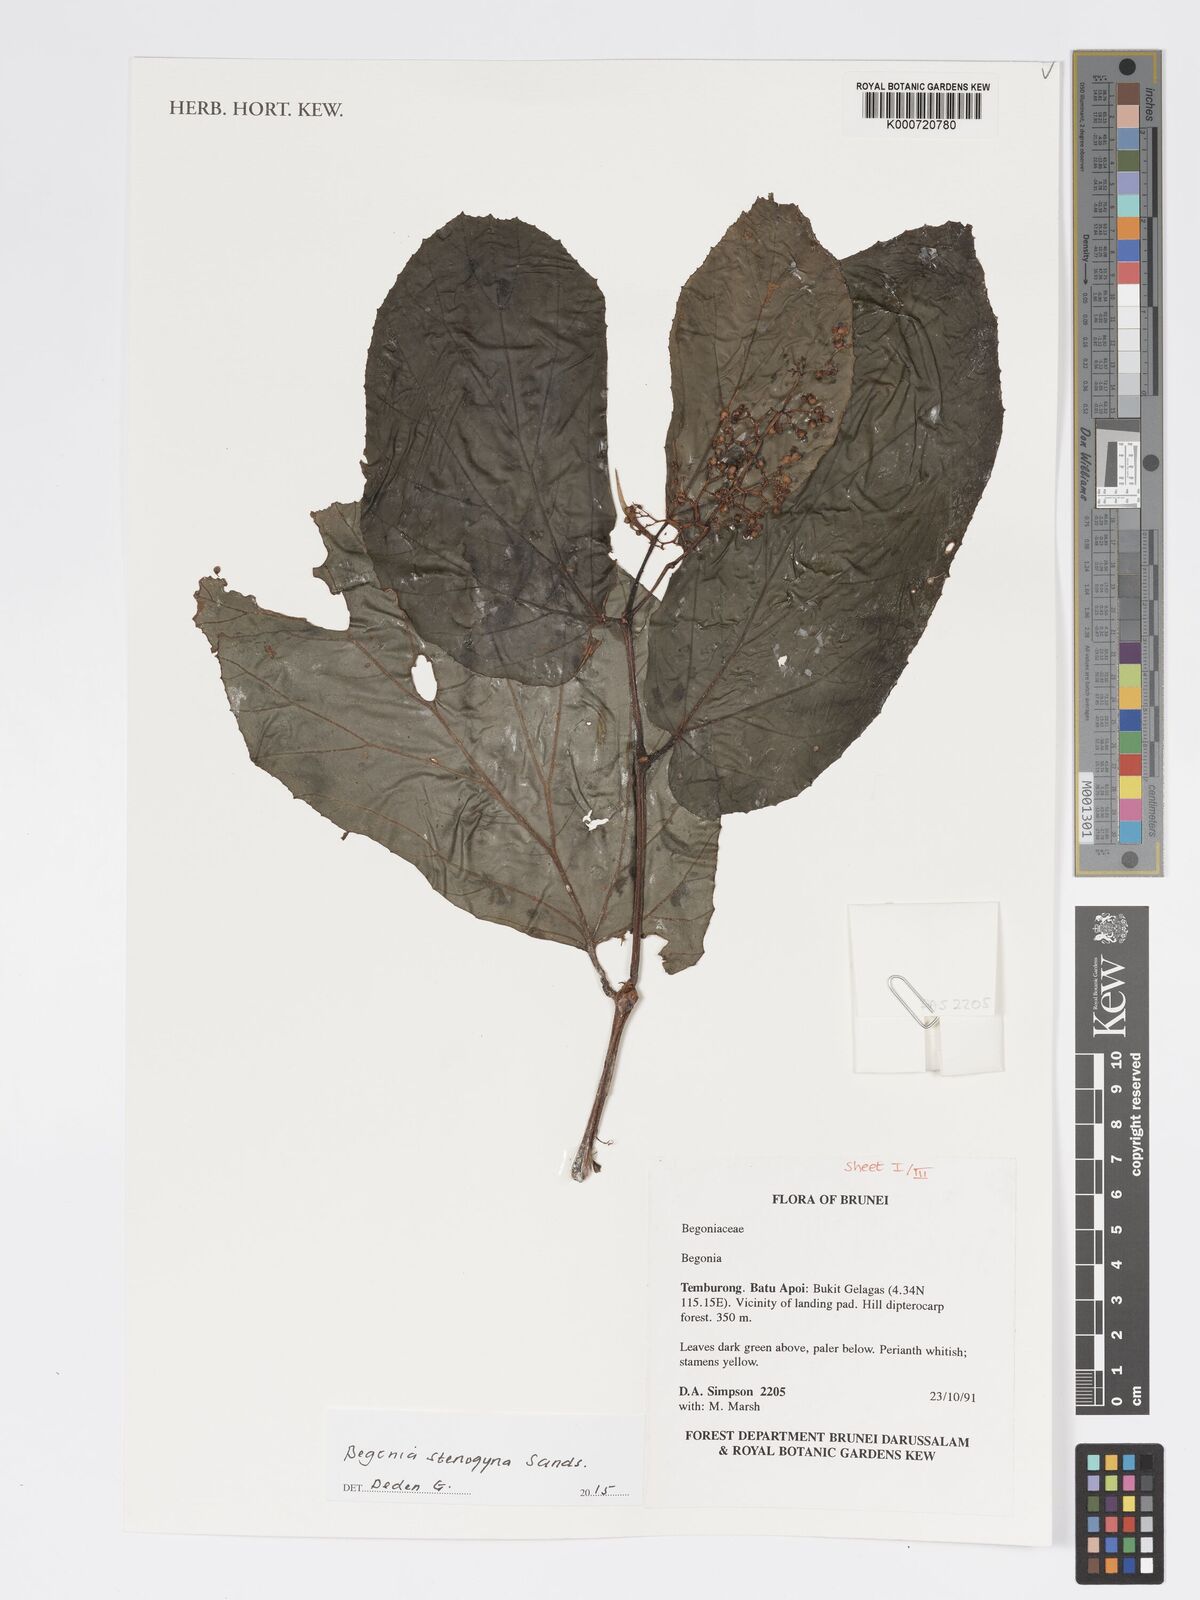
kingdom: Plantae
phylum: Tracheophyta
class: Magnoliopsida
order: Cucurbitales
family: Begoniaceae
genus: Begonia
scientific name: Begonia stenogyna
